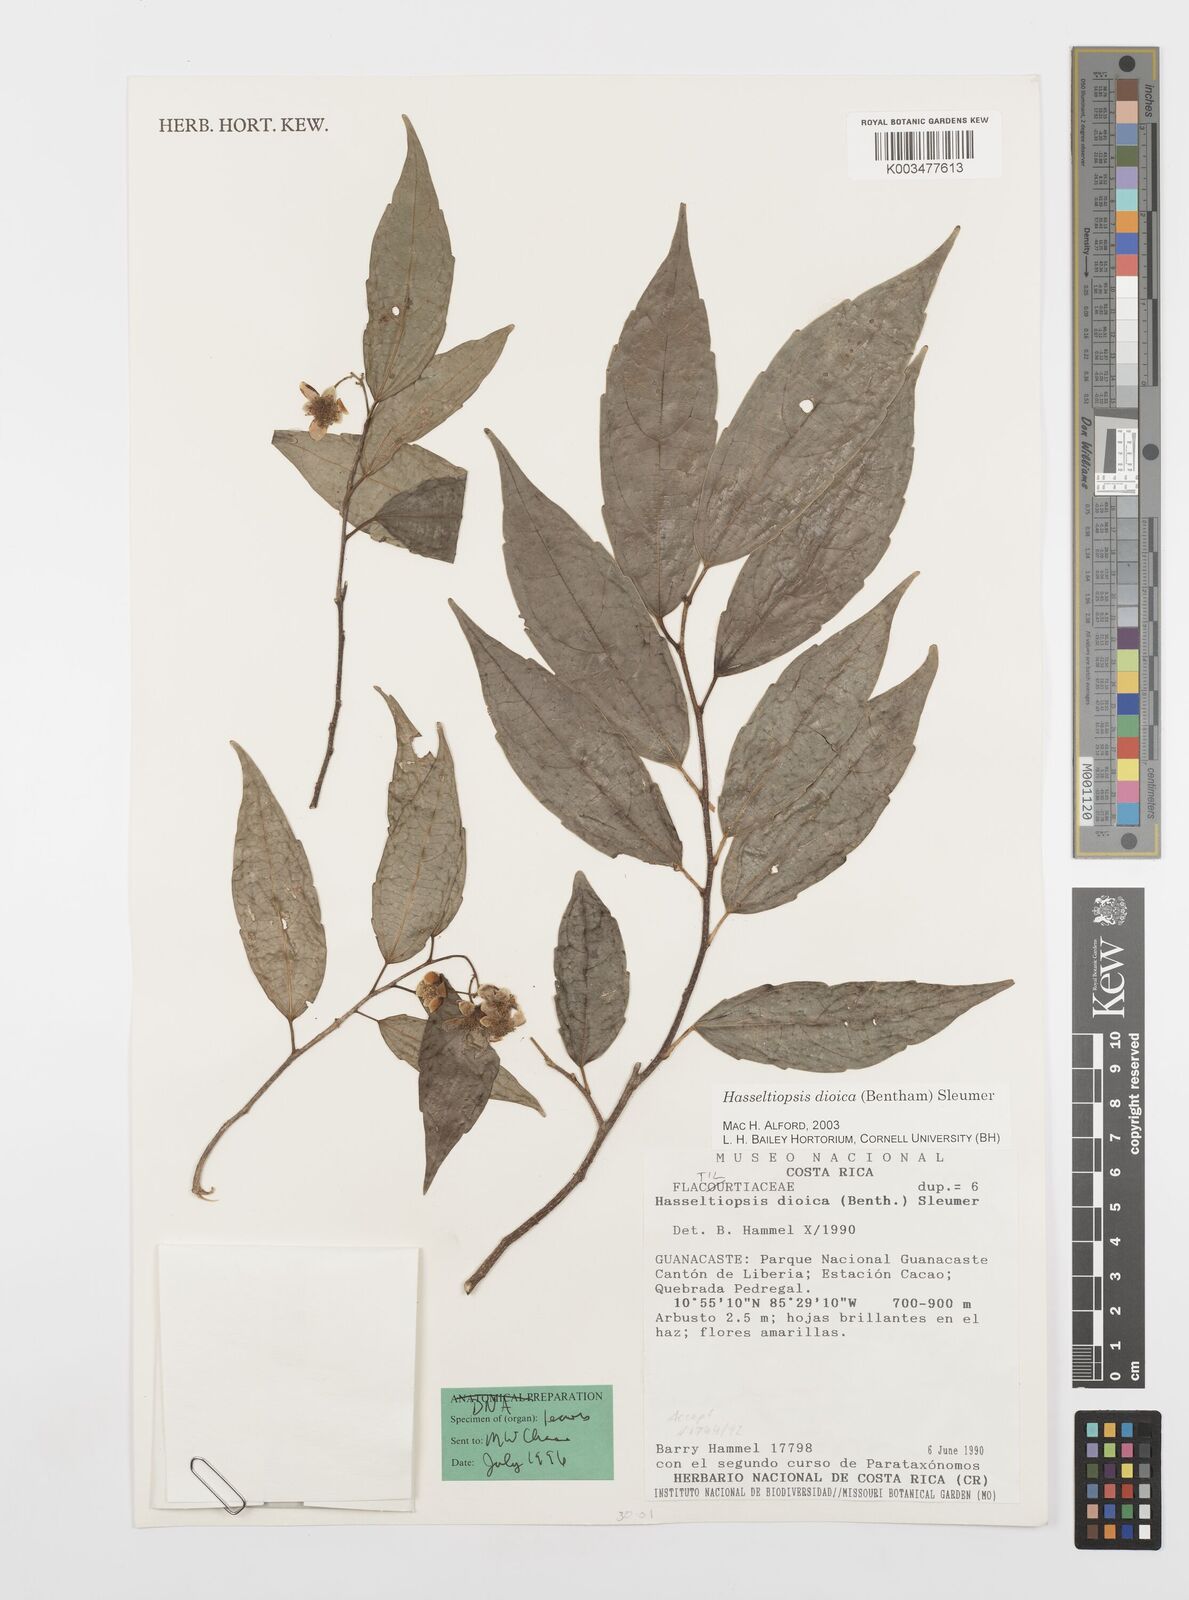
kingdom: Plantae
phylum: Tracheophyta
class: Magnoliopsida
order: Malpighiales
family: Salicaceae
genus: Hasseltiopsis
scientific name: Hasseltiopsis dioica
